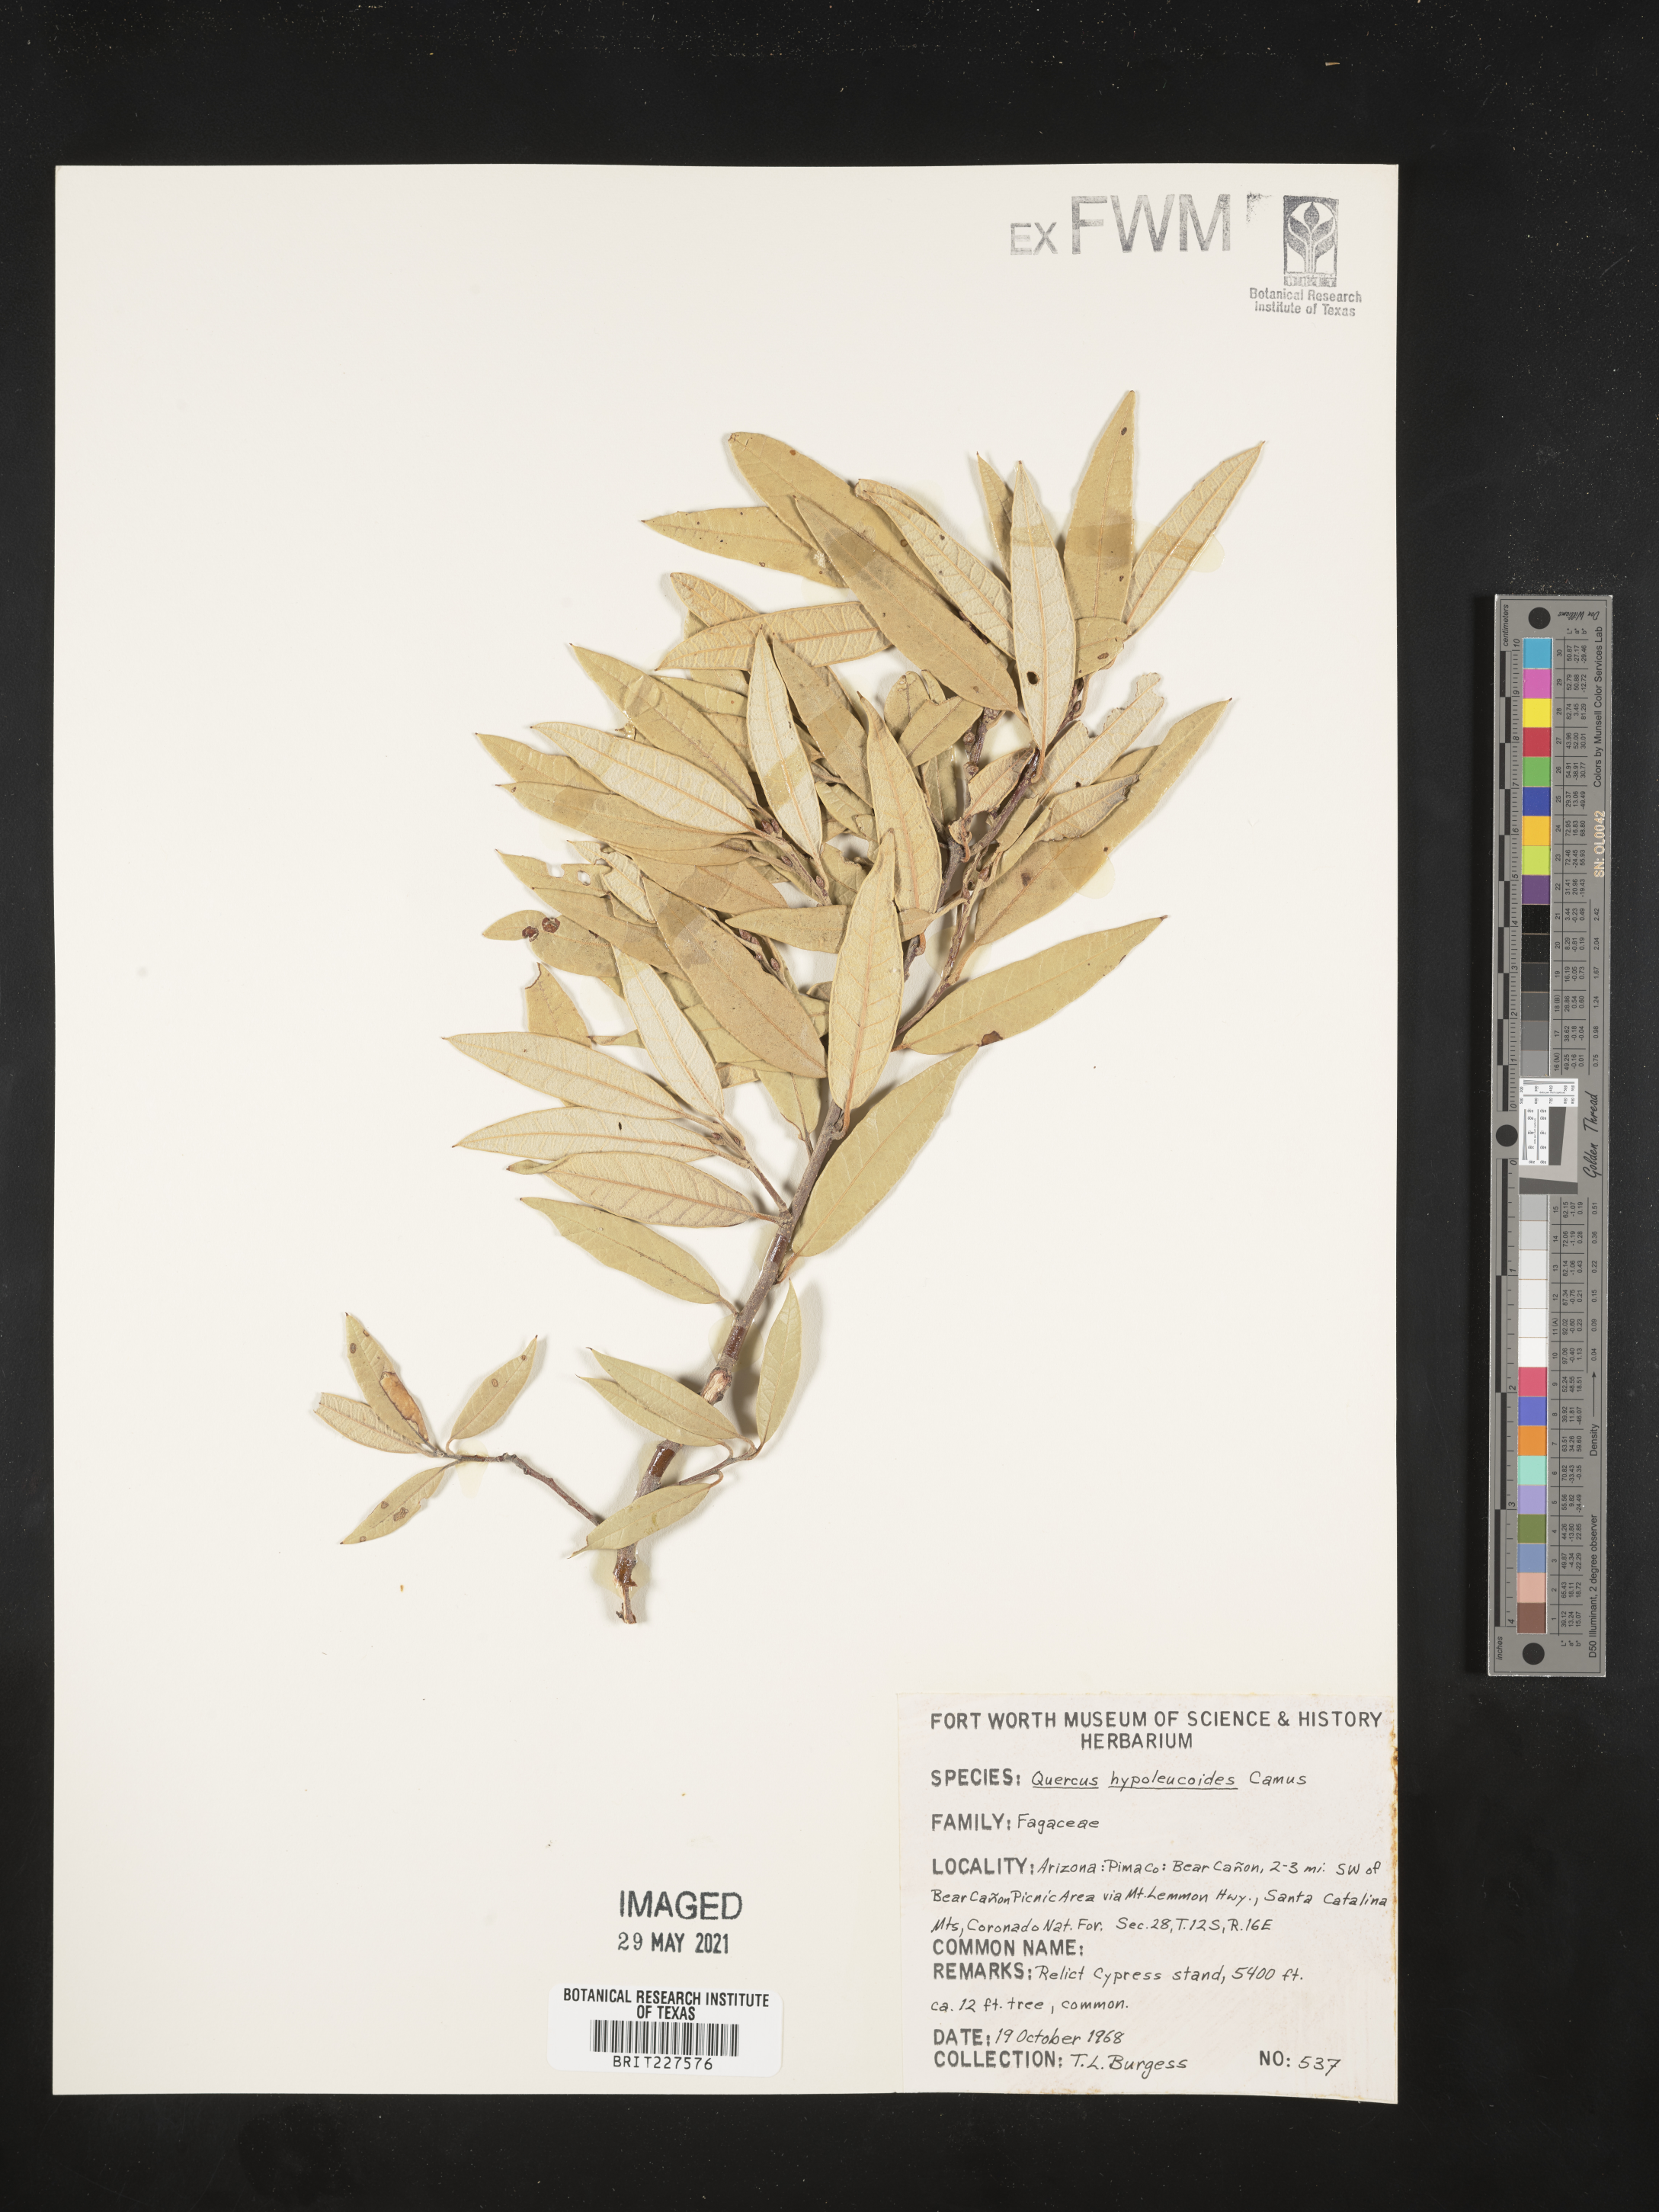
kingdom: Plantae
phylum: Tracheophyta
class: Magnoliopsida
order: Fagales
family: Fagaceae
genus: Quercus
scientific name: Quercus hypoleucoides
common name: Silverleaf oak
